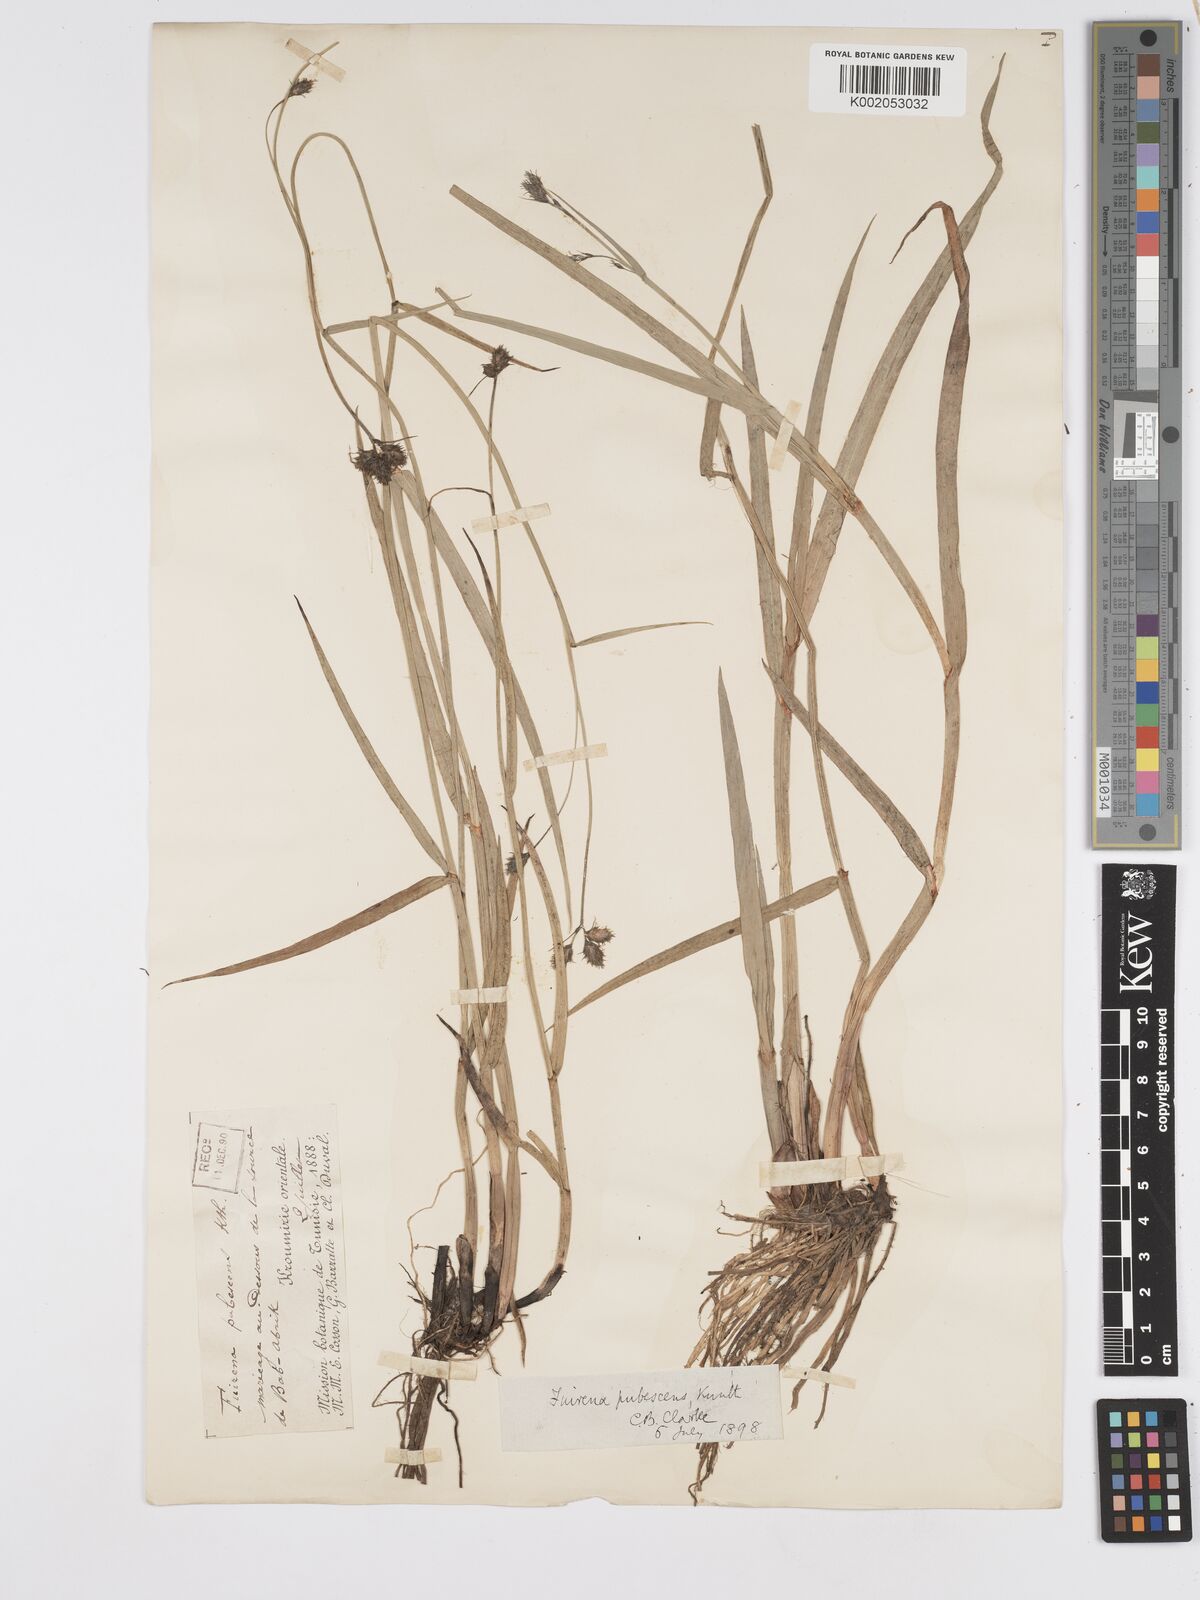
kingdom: Plantae
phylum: Tracheophyta
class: Liliopsida
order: Poales
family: Cyperaceae
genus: Fuirena
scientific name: Fuirena pubescens
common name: Hairy sedge
